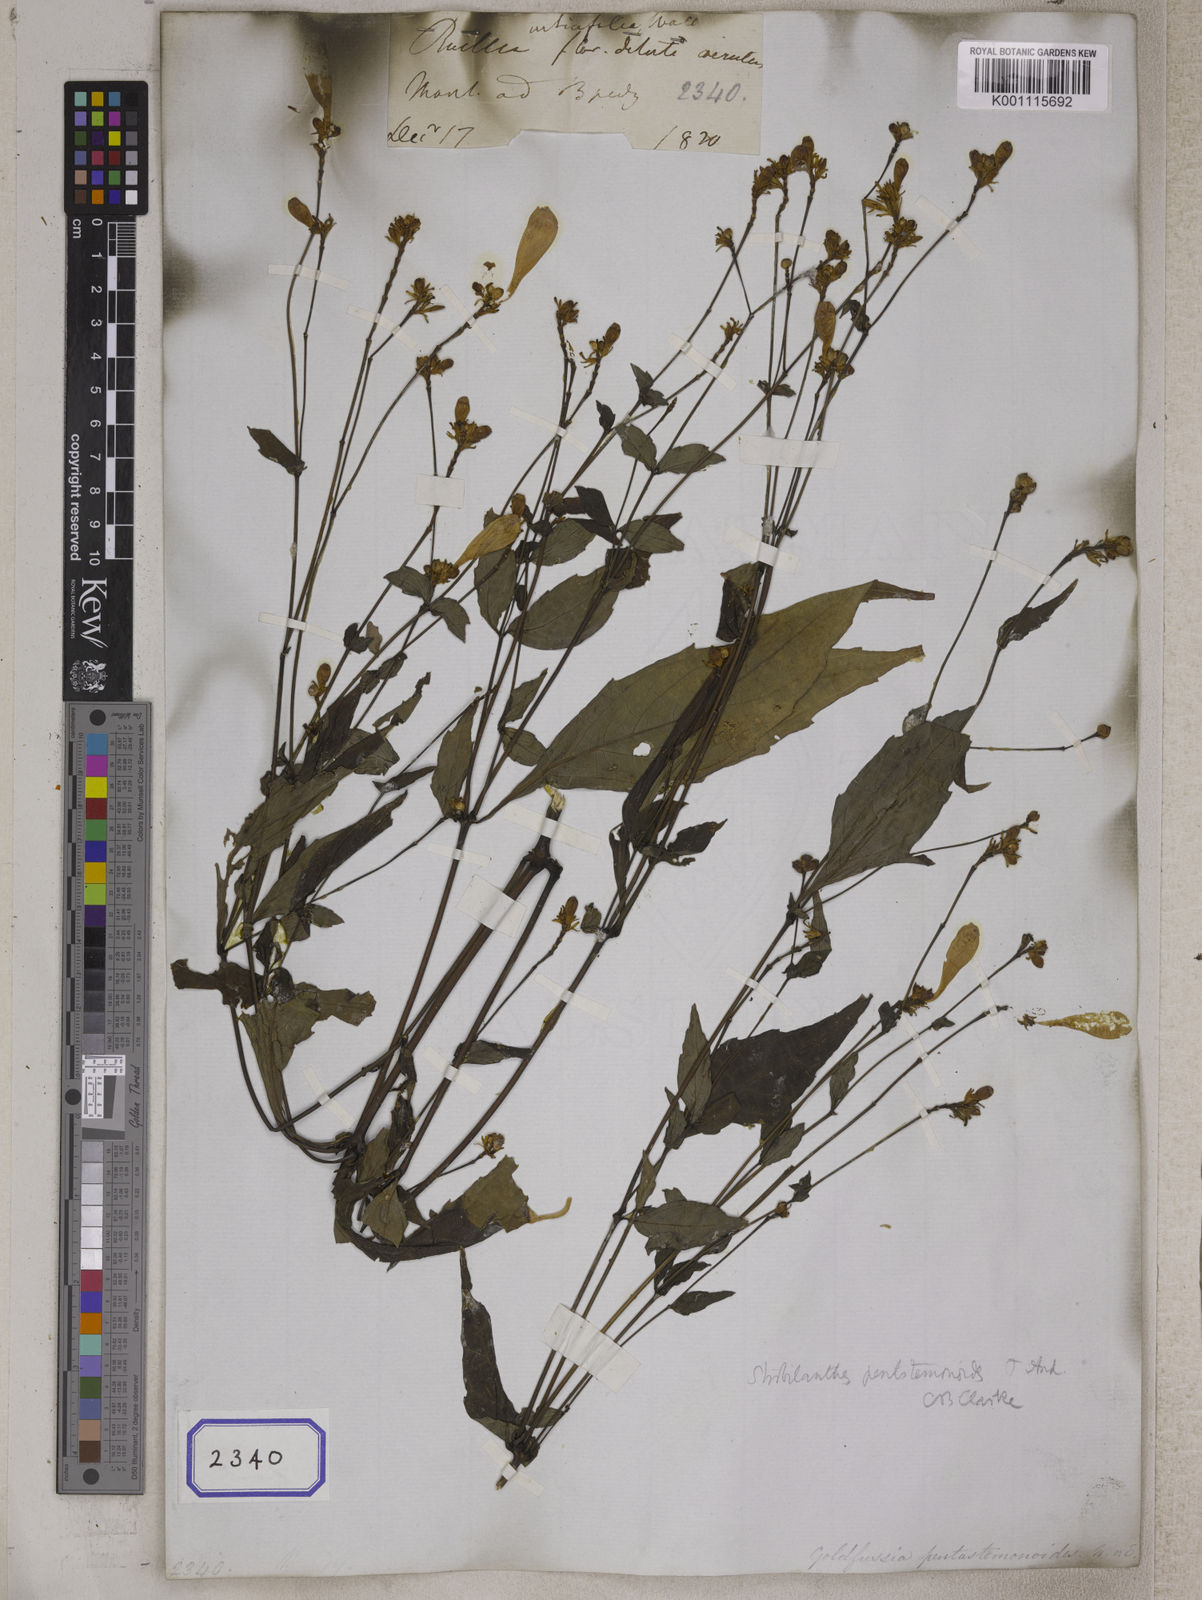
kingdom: Plantae
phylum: Tracheophyta
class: Magnoliopsida
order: Lamiales
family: Acanthaceae
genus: Strobilanthes
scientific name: Strobilanthes pentastemonoides
